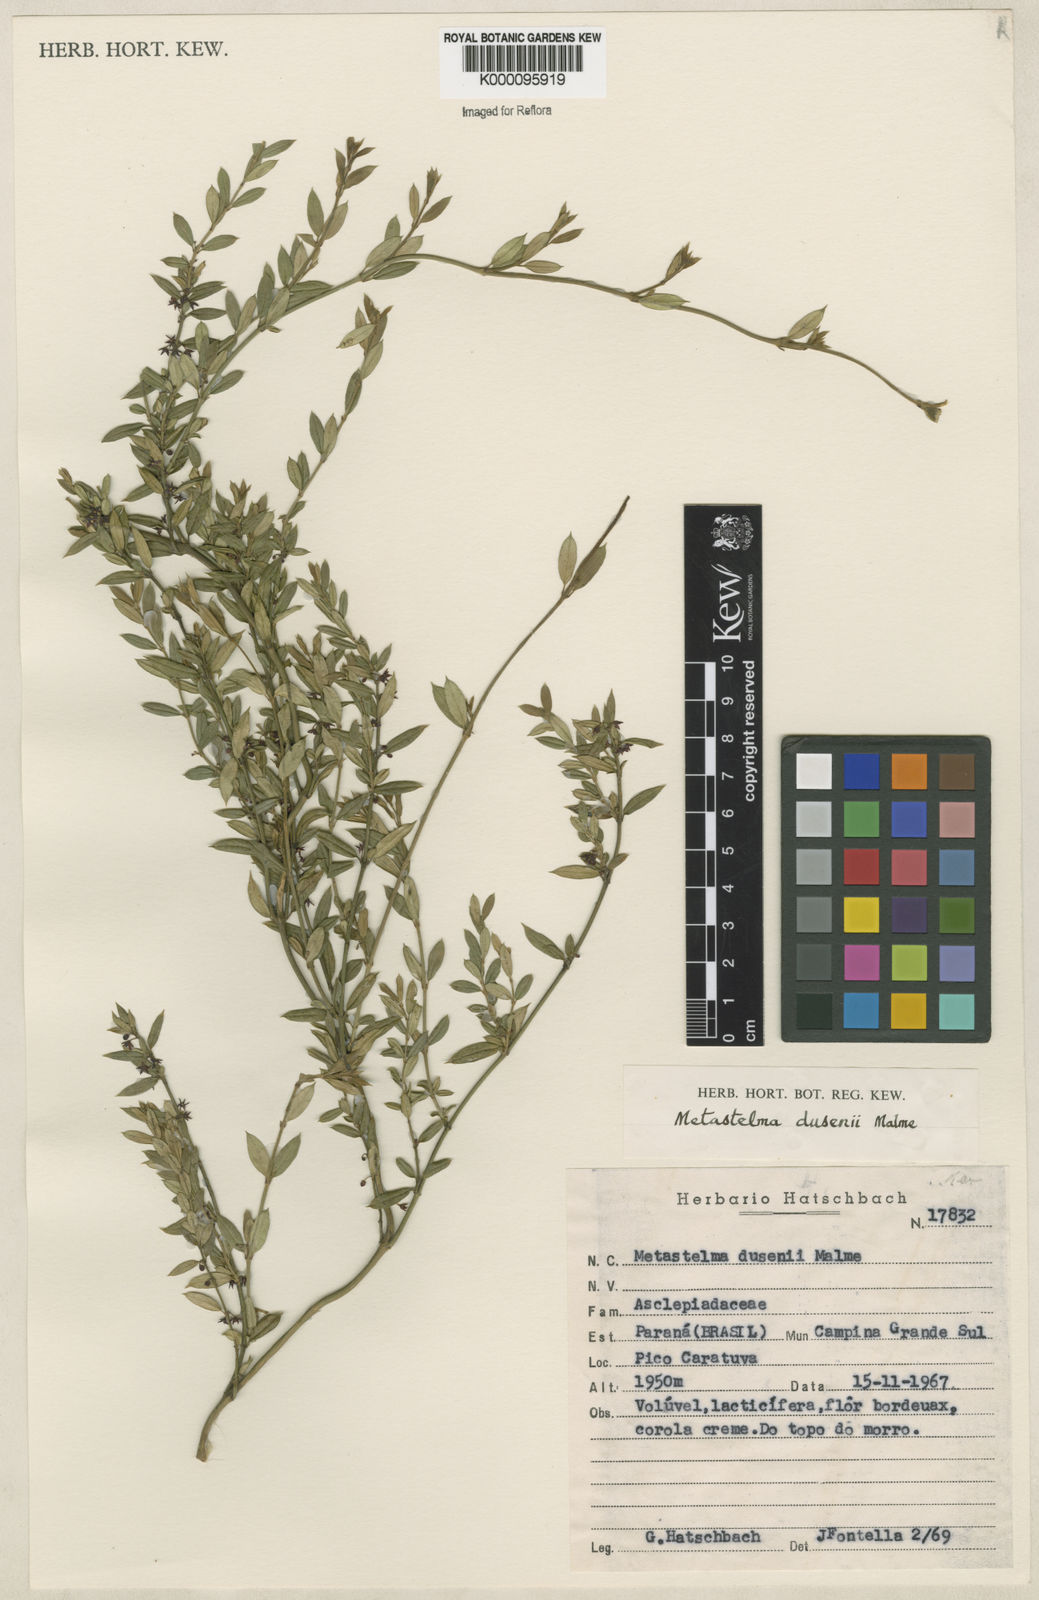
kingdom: Plantae
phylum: Tracheophyta
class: Magnoliopsida
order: Gentianales
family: Apocynaceae
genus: Orthosia
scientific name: Orthosia dusenii
